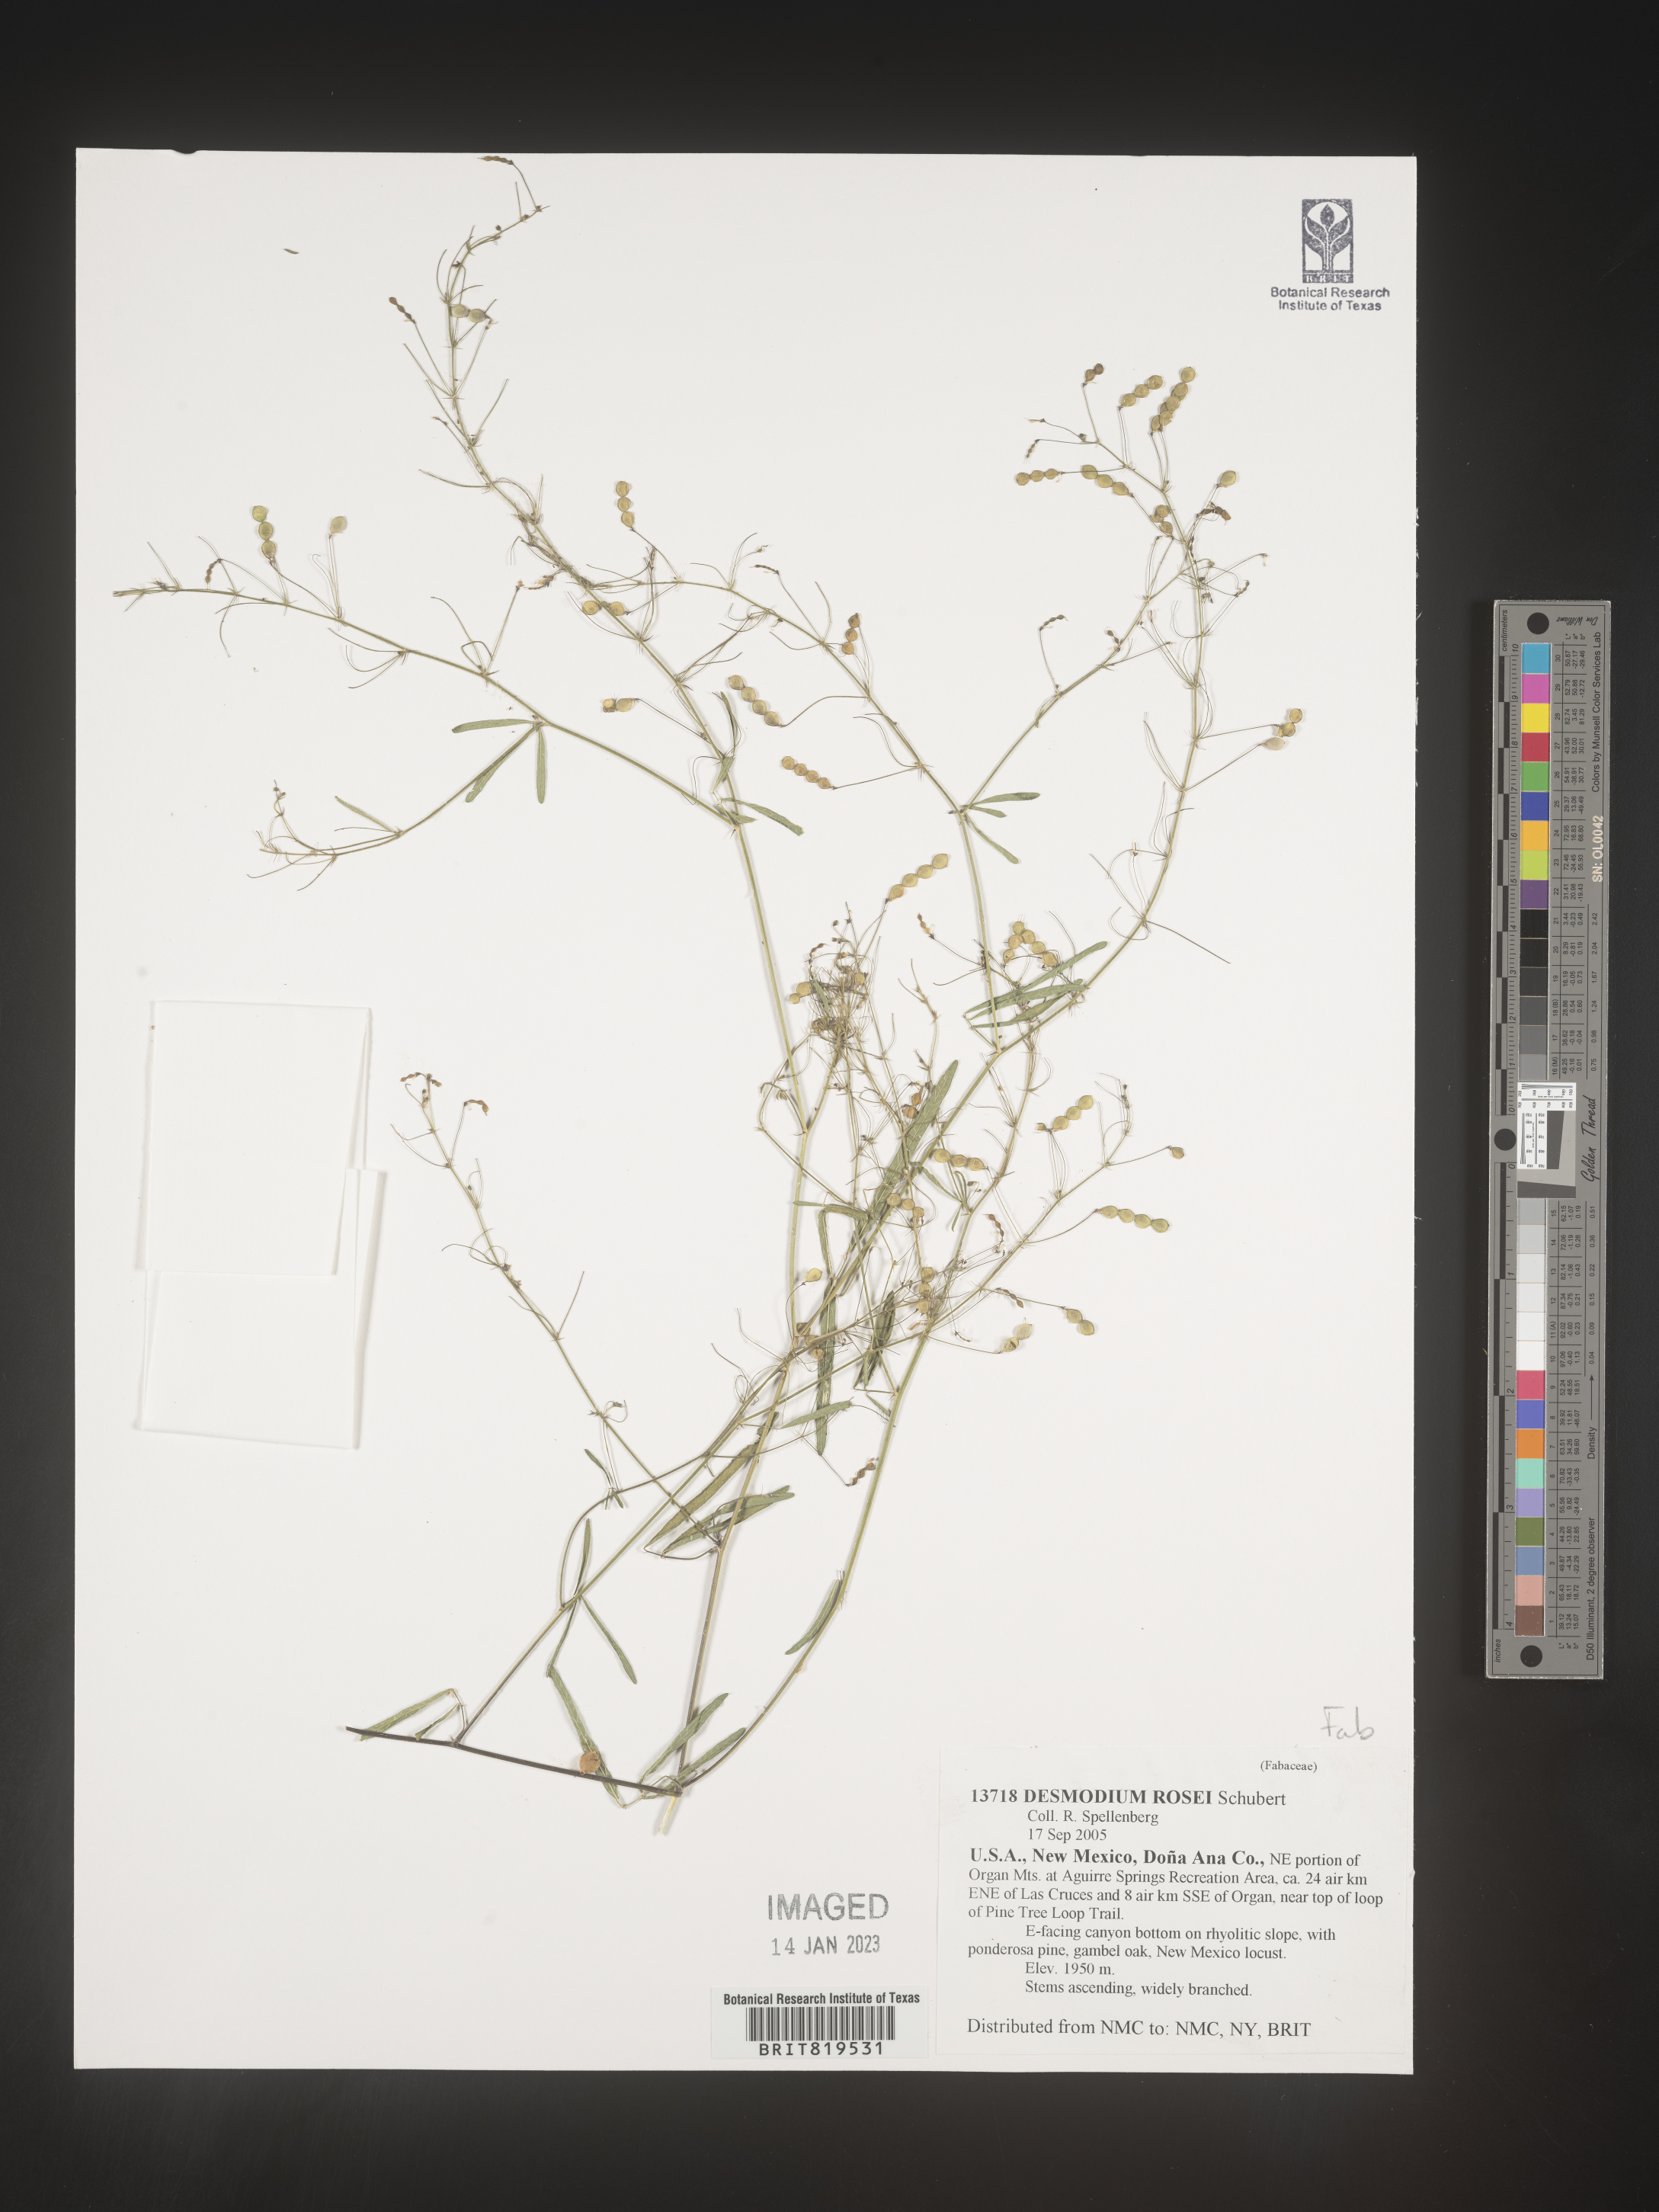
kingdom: Plantae
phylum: Tracheophyta
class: Magnoliopsida
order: Fabales
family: Fabaceae
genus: Desmodium
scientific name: Desmodium
